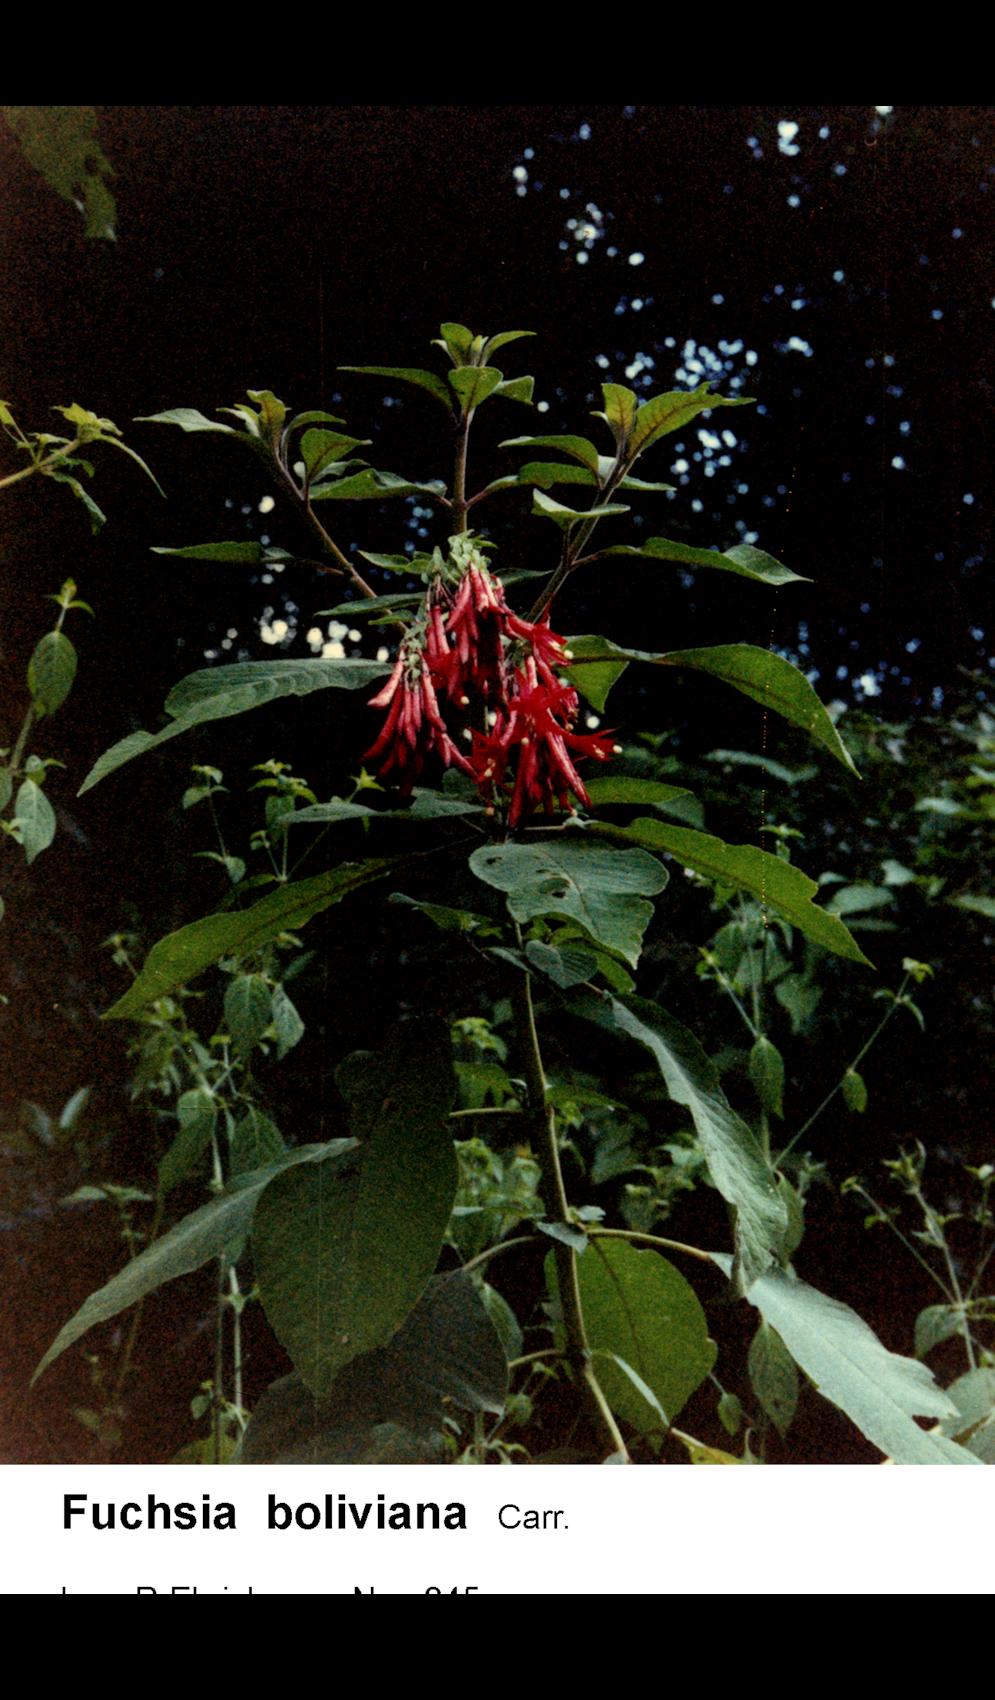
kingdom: Plantae
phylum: Tracheophyta
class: Liliopsida
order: Zingiberales
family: Marantaceae
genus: Stromanthe
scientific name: Stromanthe boliviana
